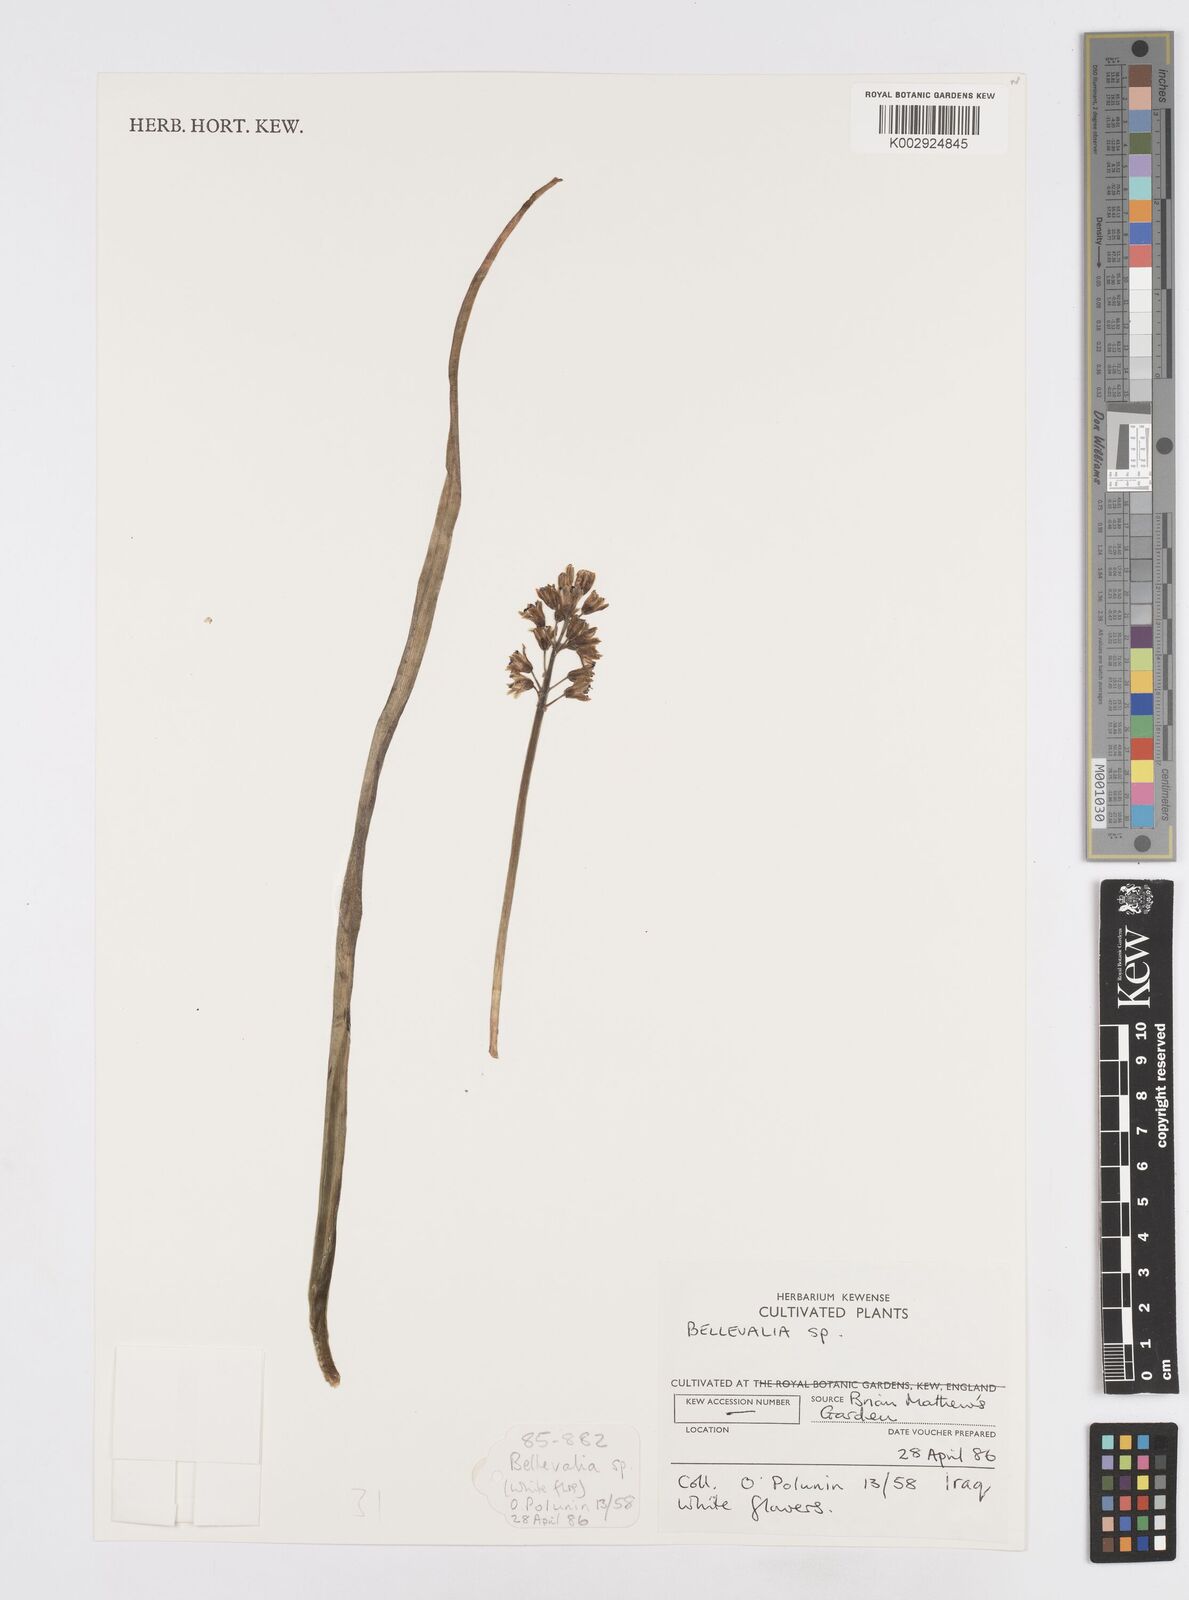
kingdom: Plantae
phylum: Tracheophyta
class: Liliopsida
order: Asparagales
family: Asparagaceae
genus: Bellevalia
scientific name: Bellevalia
